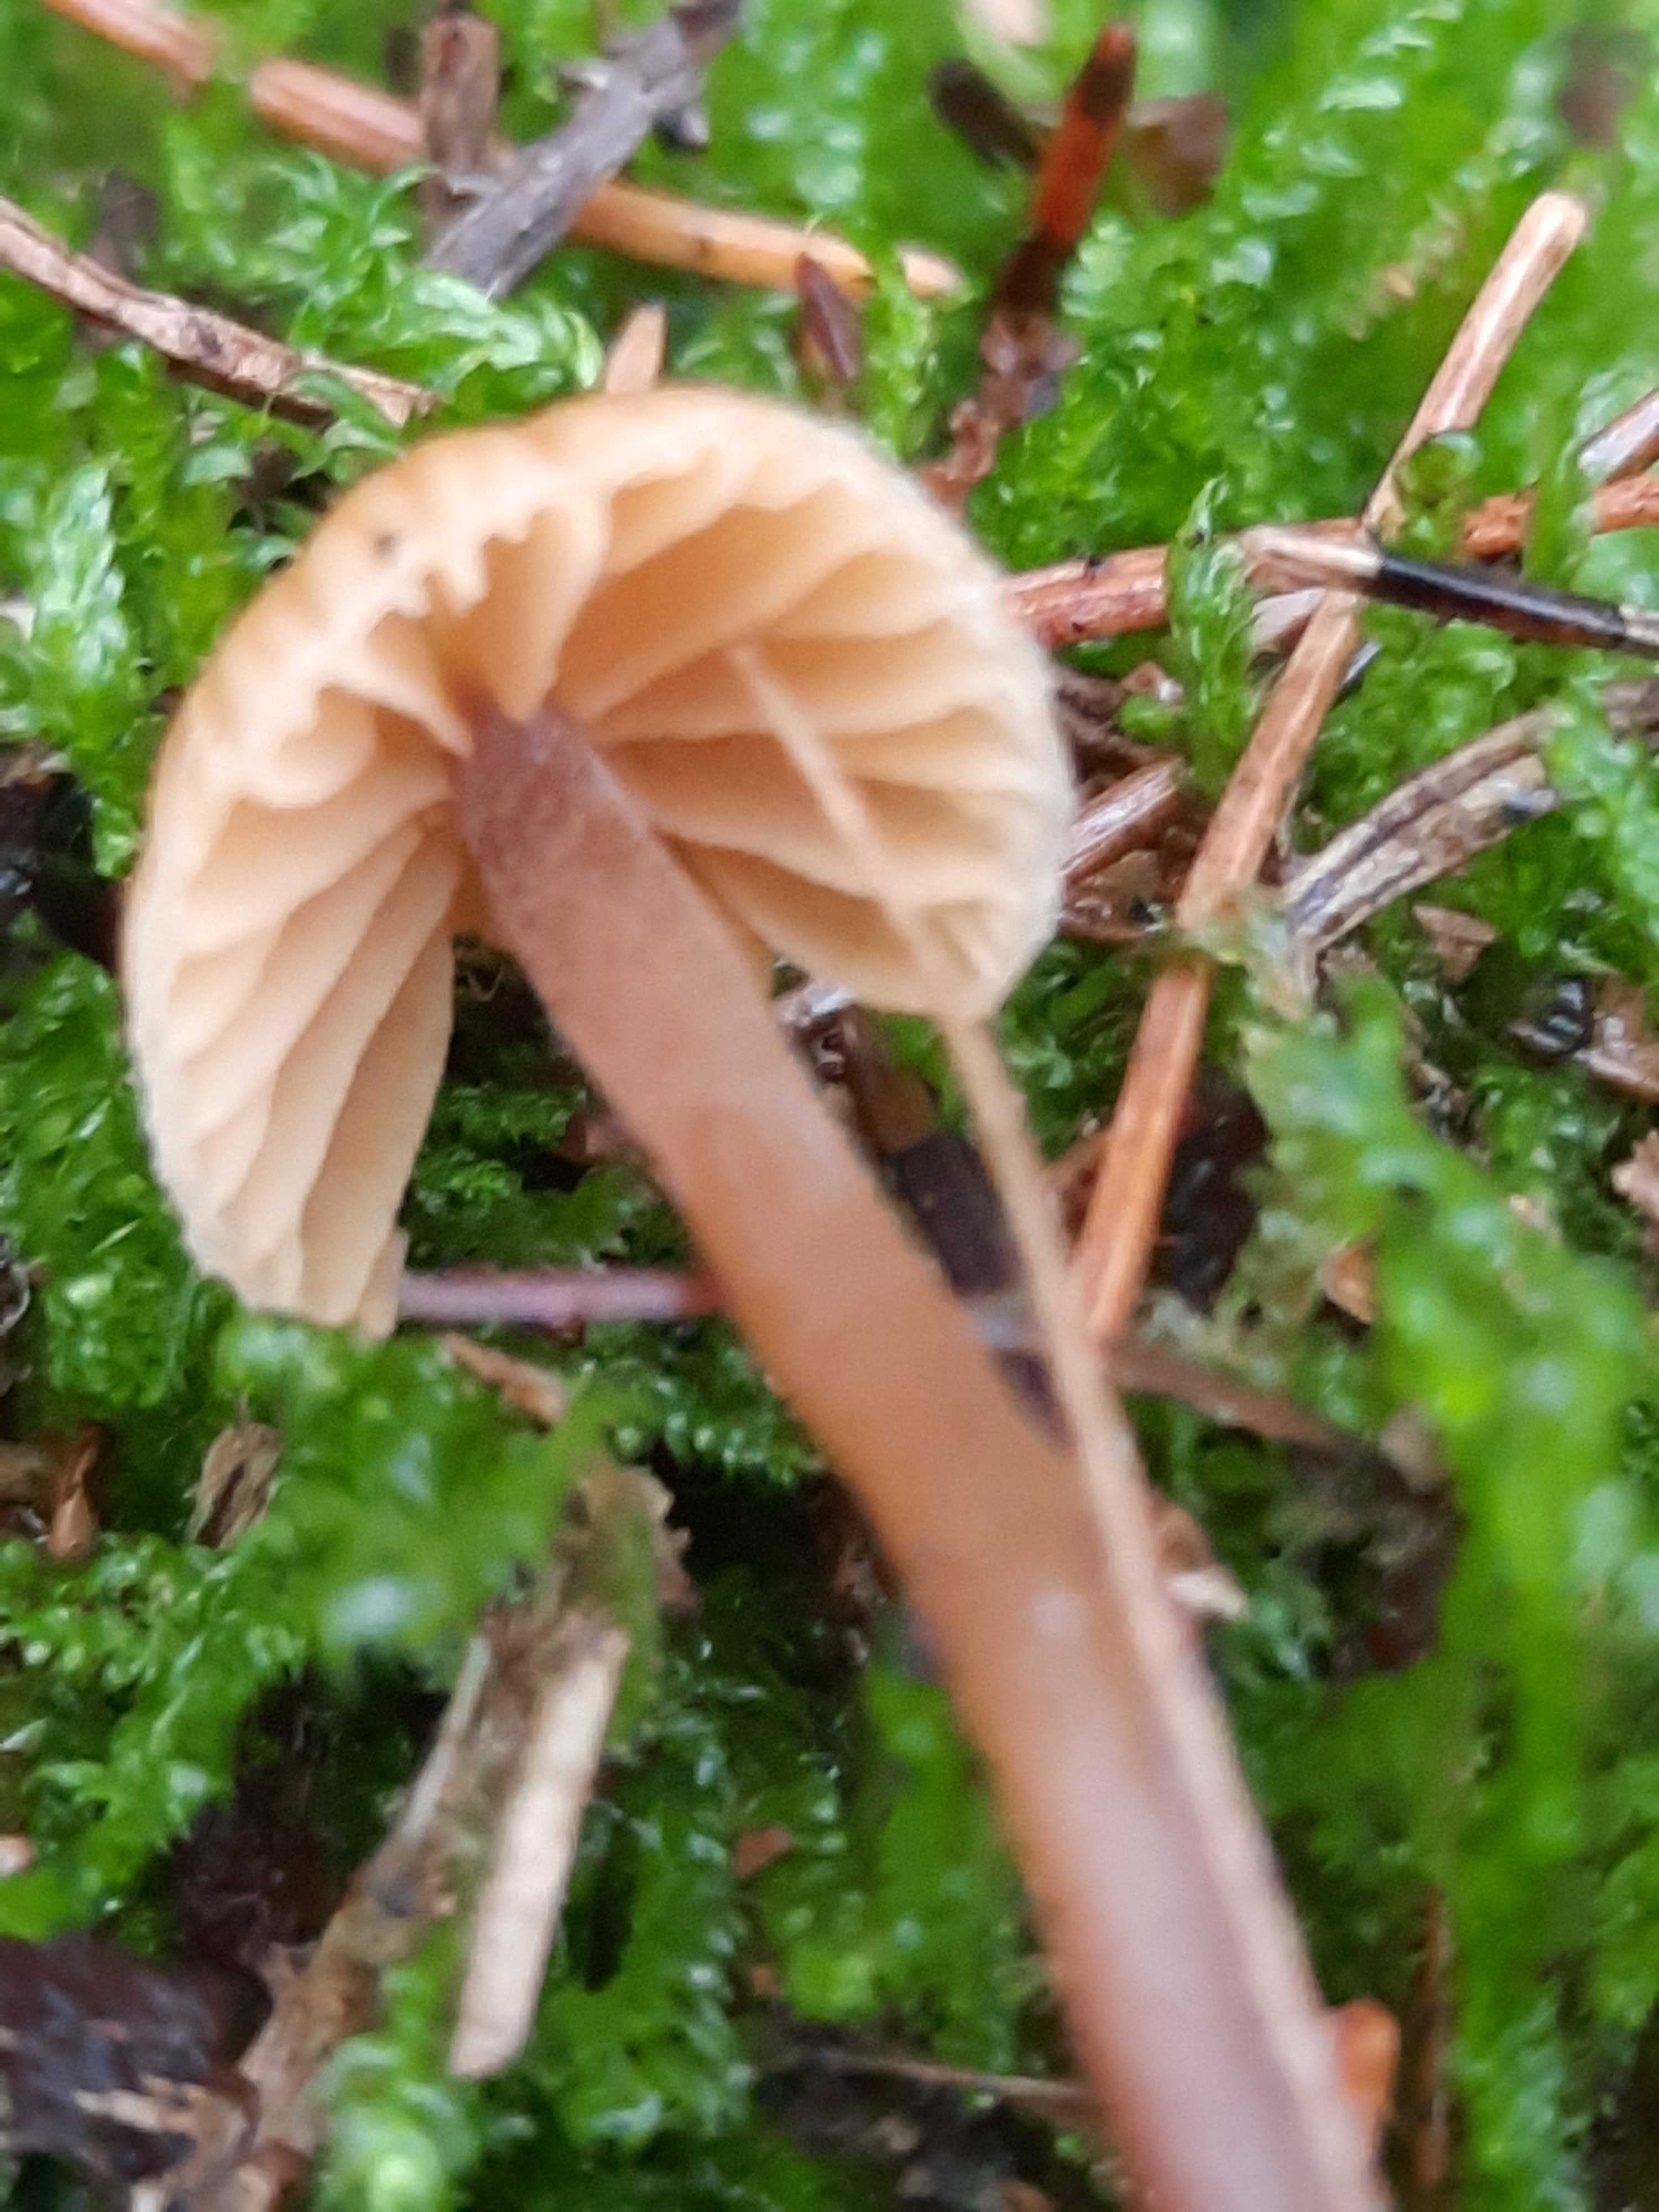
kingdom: Fungi
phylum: Basidiomycota
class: Agaricomycetes
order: Agaricales
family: Hymenogastraceae
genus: Galerina
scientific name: Galerina
